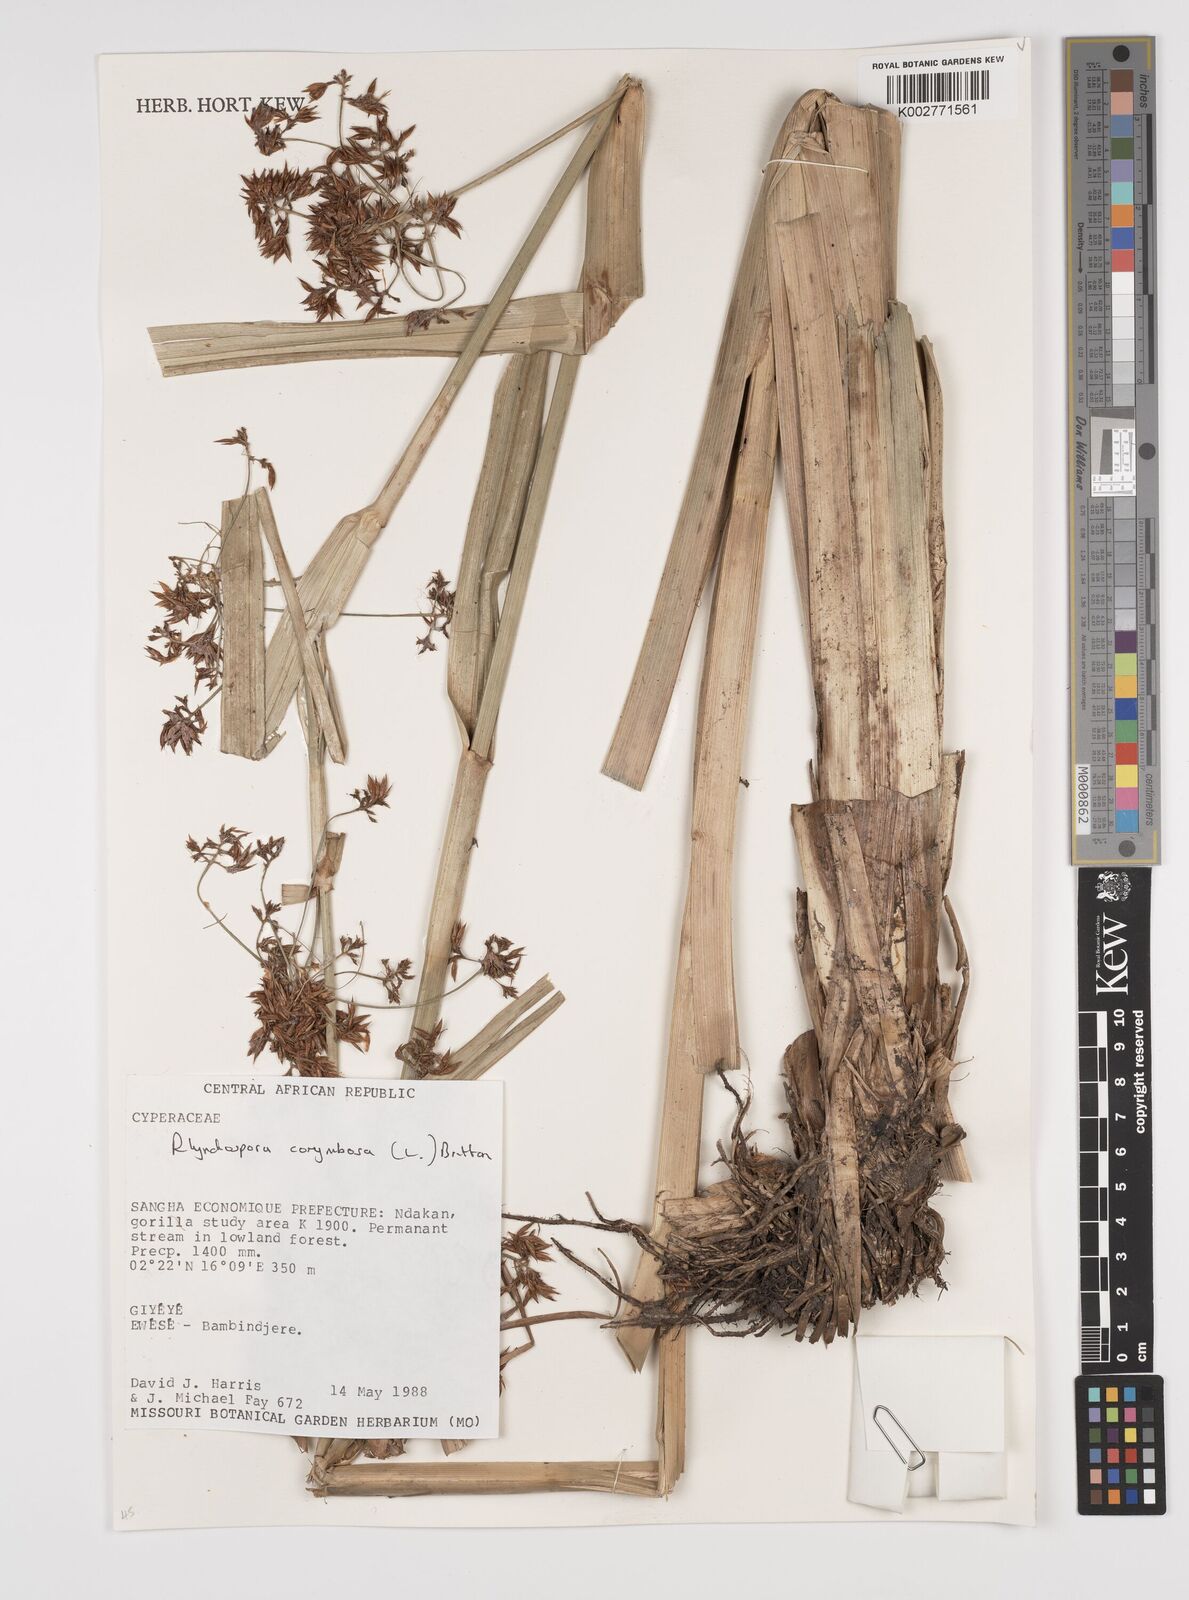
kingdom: Plantae
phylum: Tracheophyta
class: Liliopsida
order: Poales
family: Cyperaceae
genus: Rhynchospora
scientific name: Rhynchospora corymbosa
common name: Golden beak sedge
